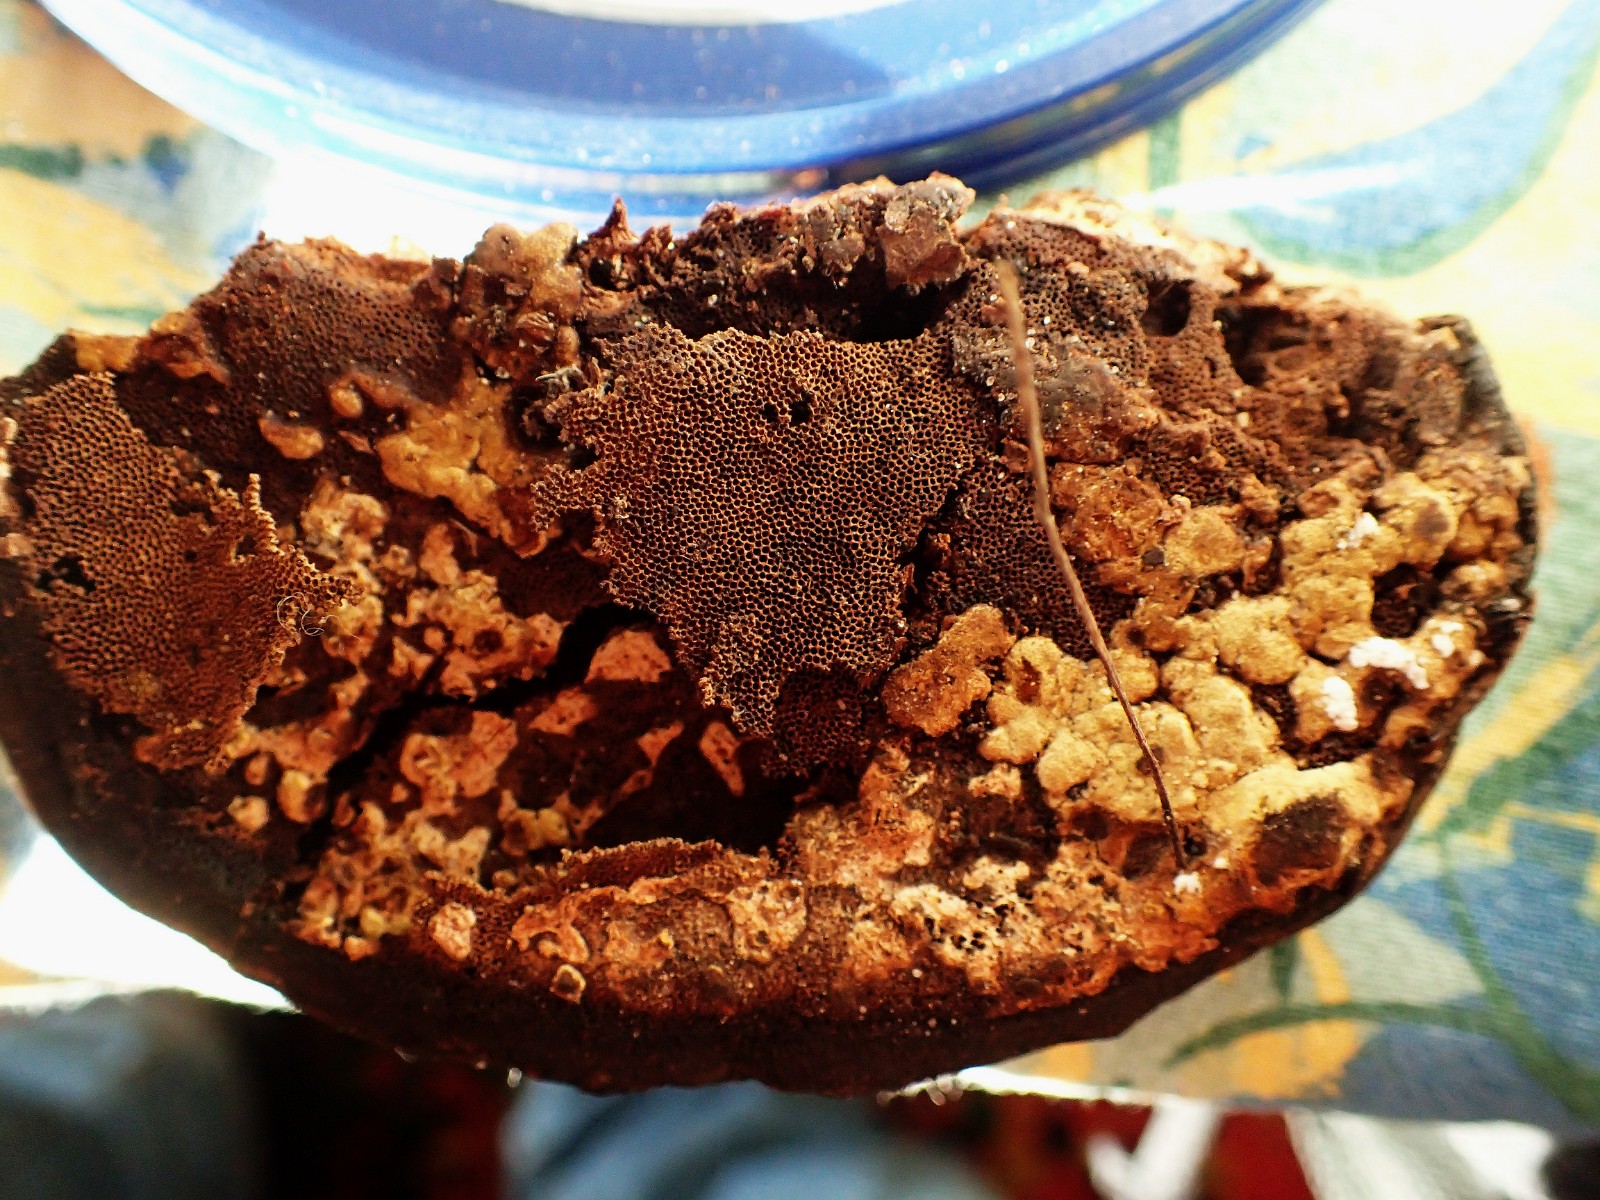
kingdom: Fungi
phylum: Ascomycota
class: Sordariomycetes
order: Hypocreales
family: Hypocreaceae
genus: Trichoderma
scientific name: Trichoderma pulvinatum
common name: snyltende kødkerne
